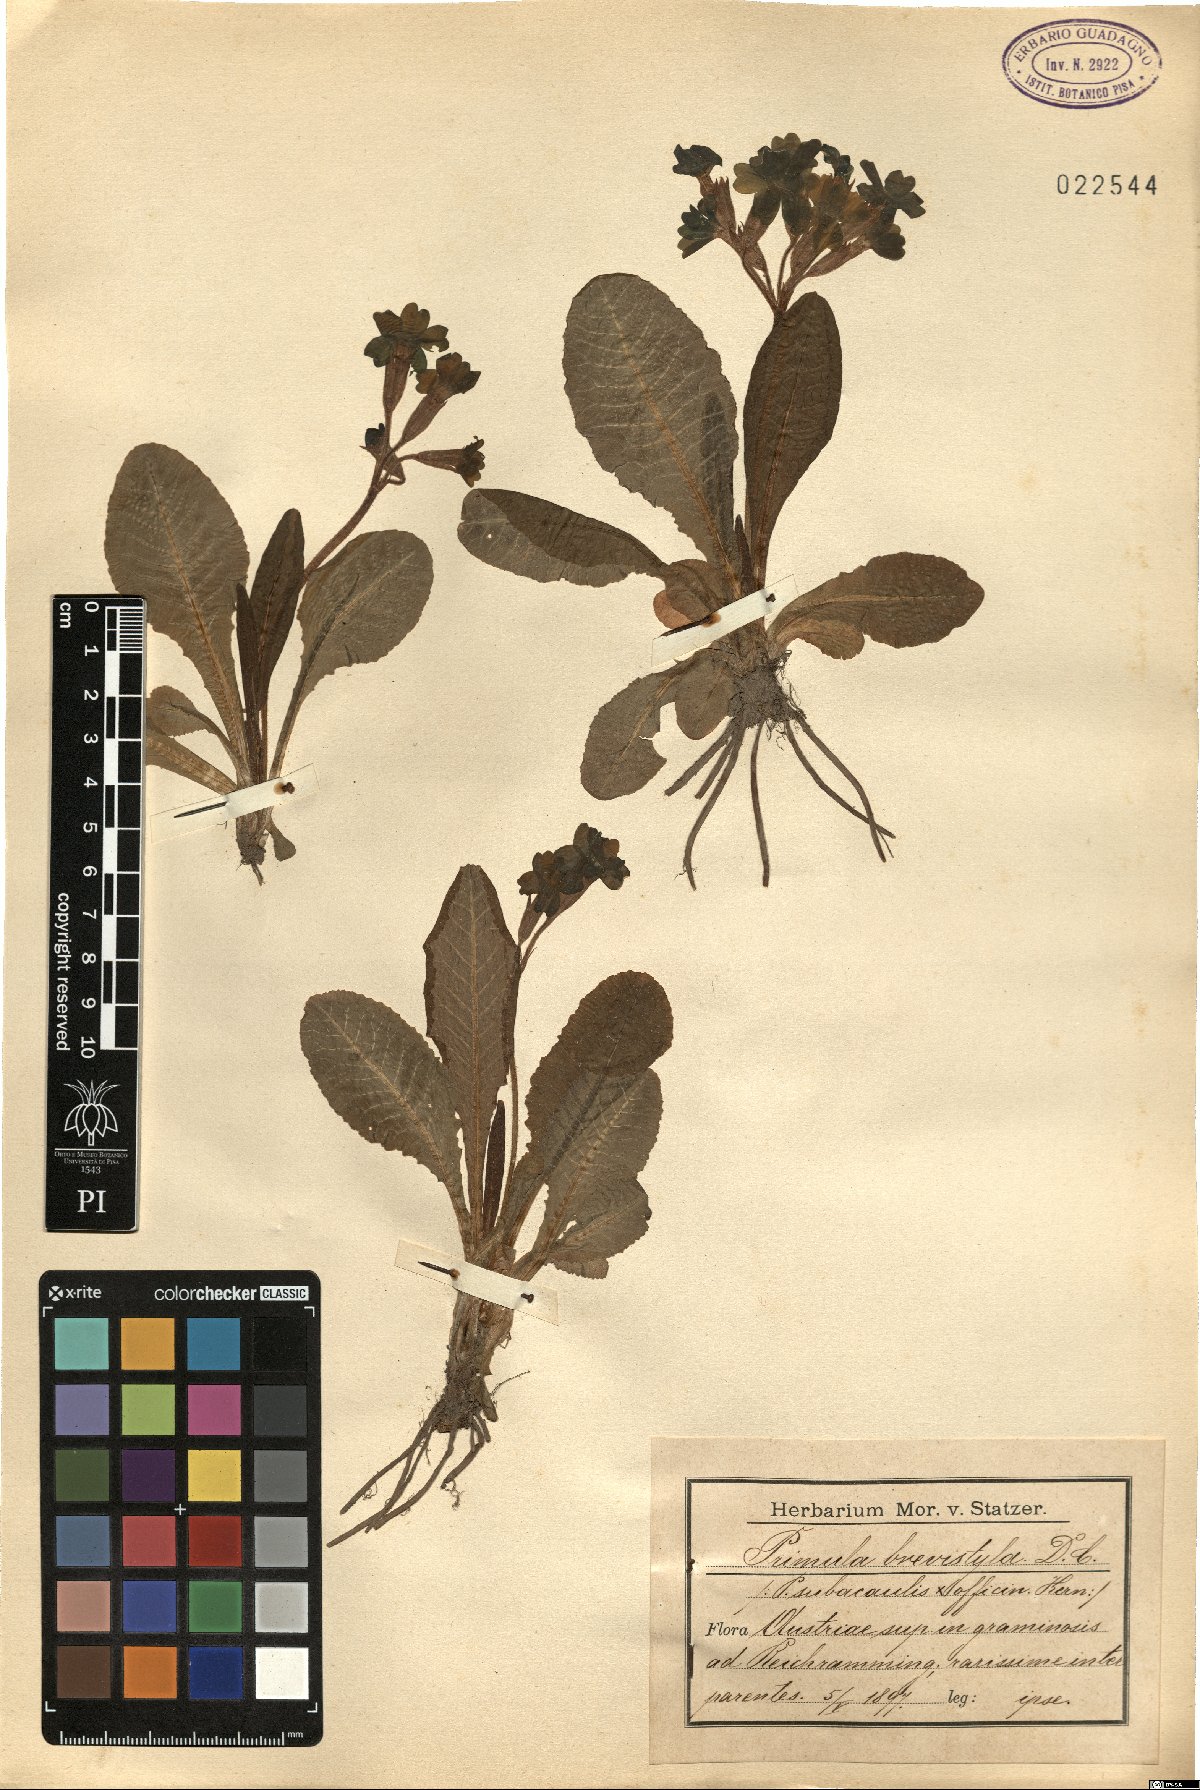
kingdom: Plantae
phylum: Tracheophyta
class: Magnoliopsida
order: Ericales
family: Primulaceae
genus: Primula
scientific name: Primula polyantha
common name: False oxlip
